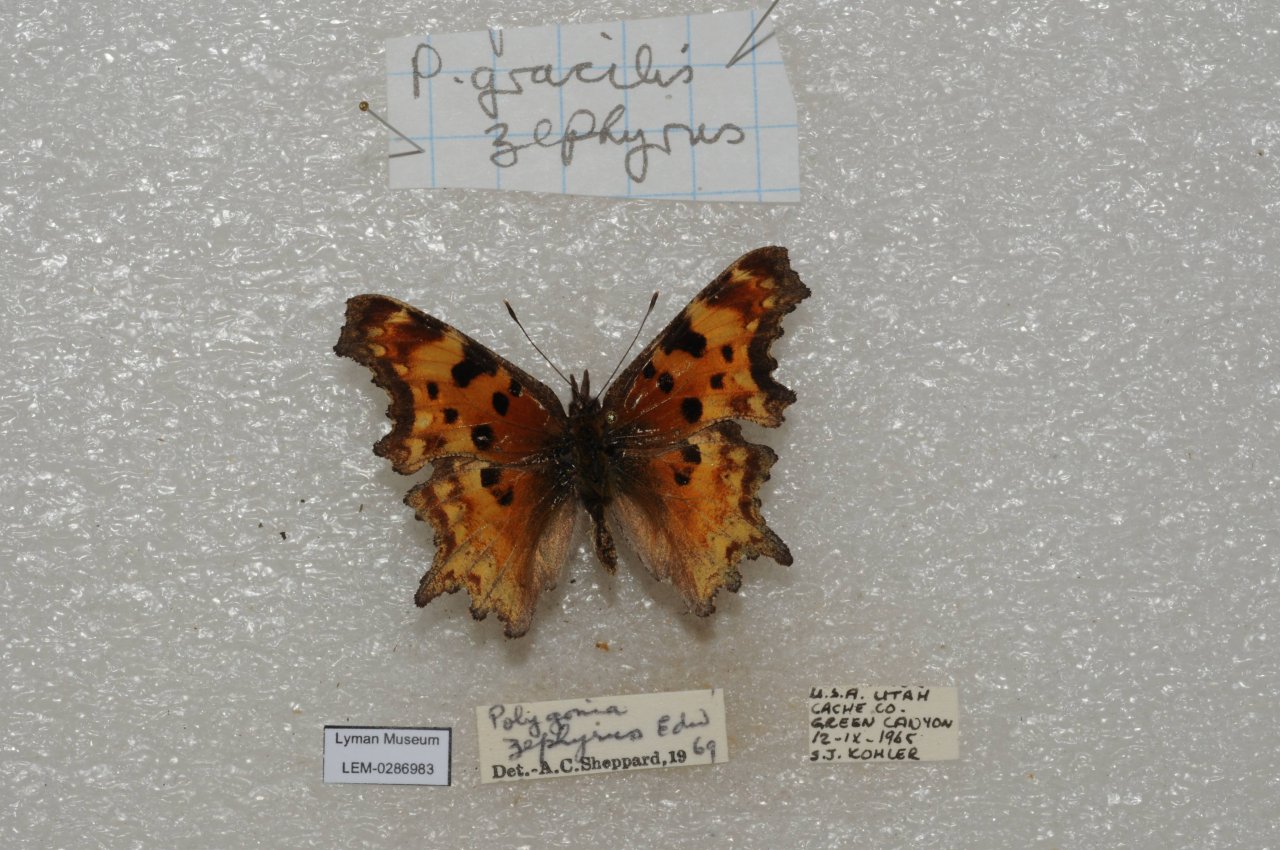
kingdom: Animalia
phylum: Arthropoda
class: Insecta
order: Lepidoptera
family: Nymphalidae
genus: Polygonia
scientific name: Polygonia gracilis
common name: Hoary Comma
